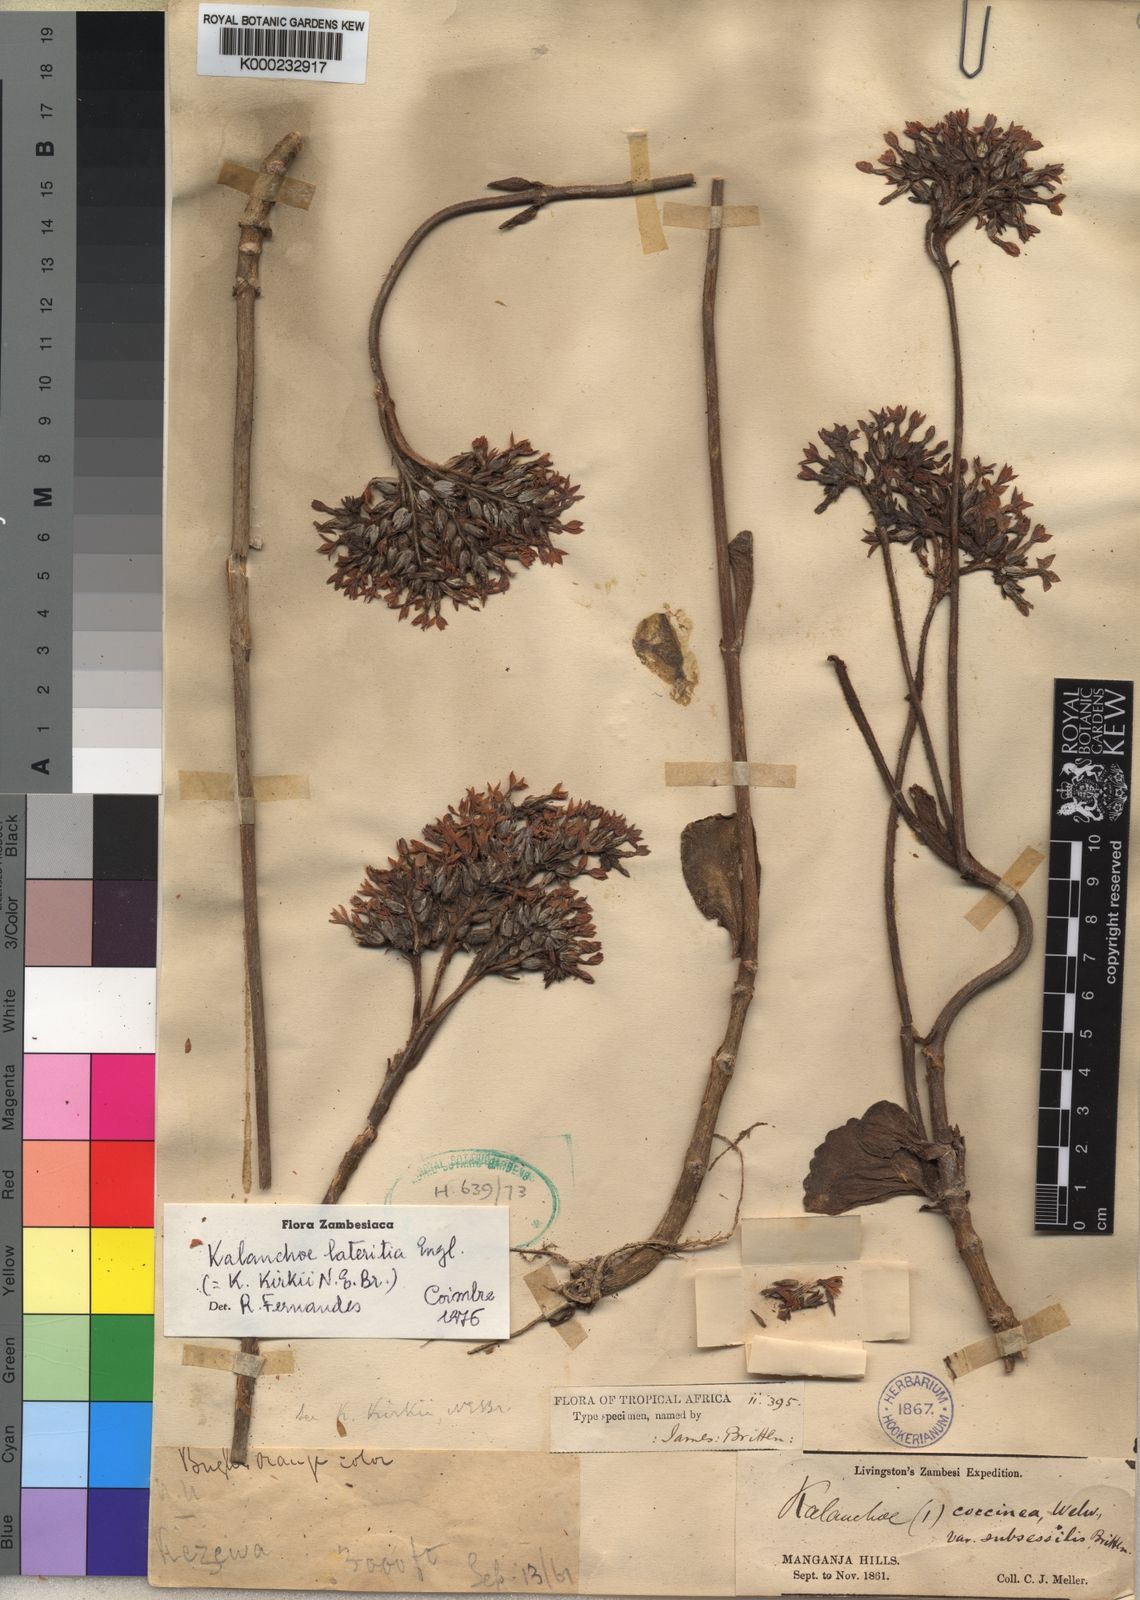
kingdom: Plantae
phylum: Tracheophyta
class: Magnoliopsida
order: Saxifragales
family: Crassulaceae
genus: Kalanchoe
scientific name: Kalanchoe lateritia
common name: Kalanchoe
